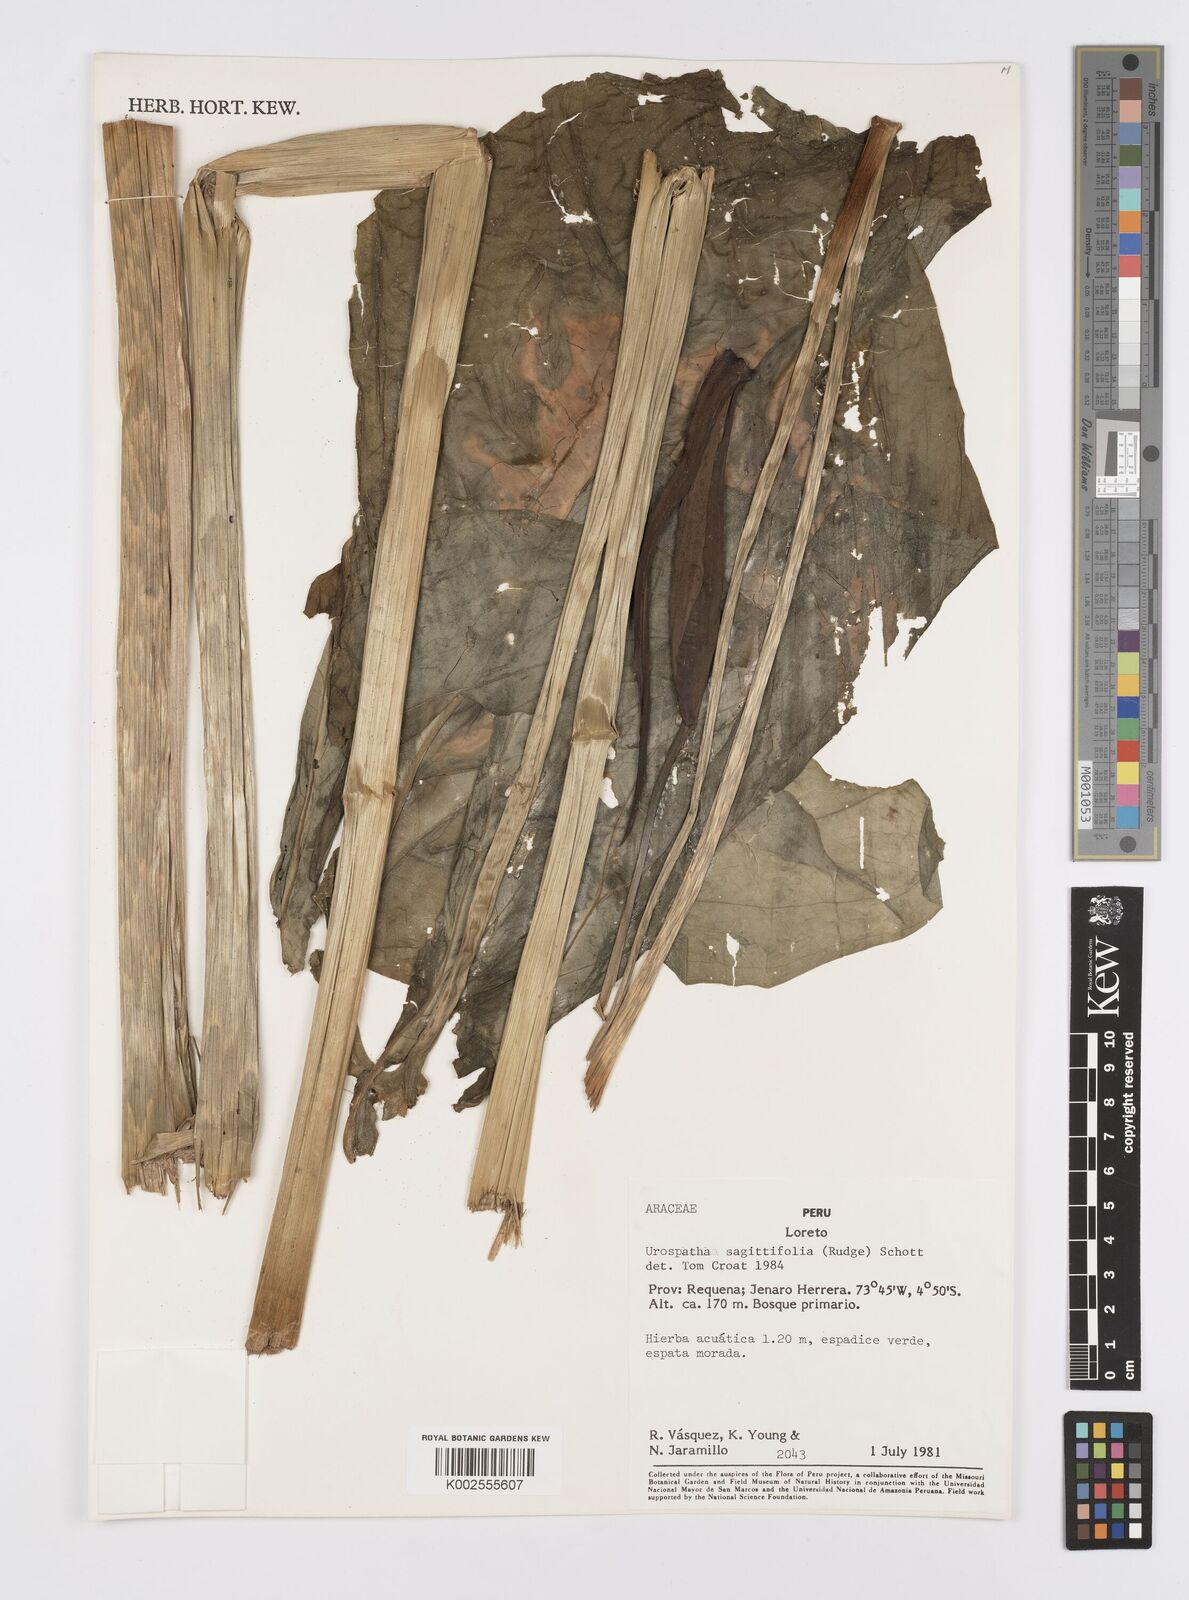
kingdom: Plantae
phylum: Tracheophyta
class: Liliopsida
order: Alismatales
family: Araceae
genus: Urospatha
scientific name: Urospatha sagittifolia
